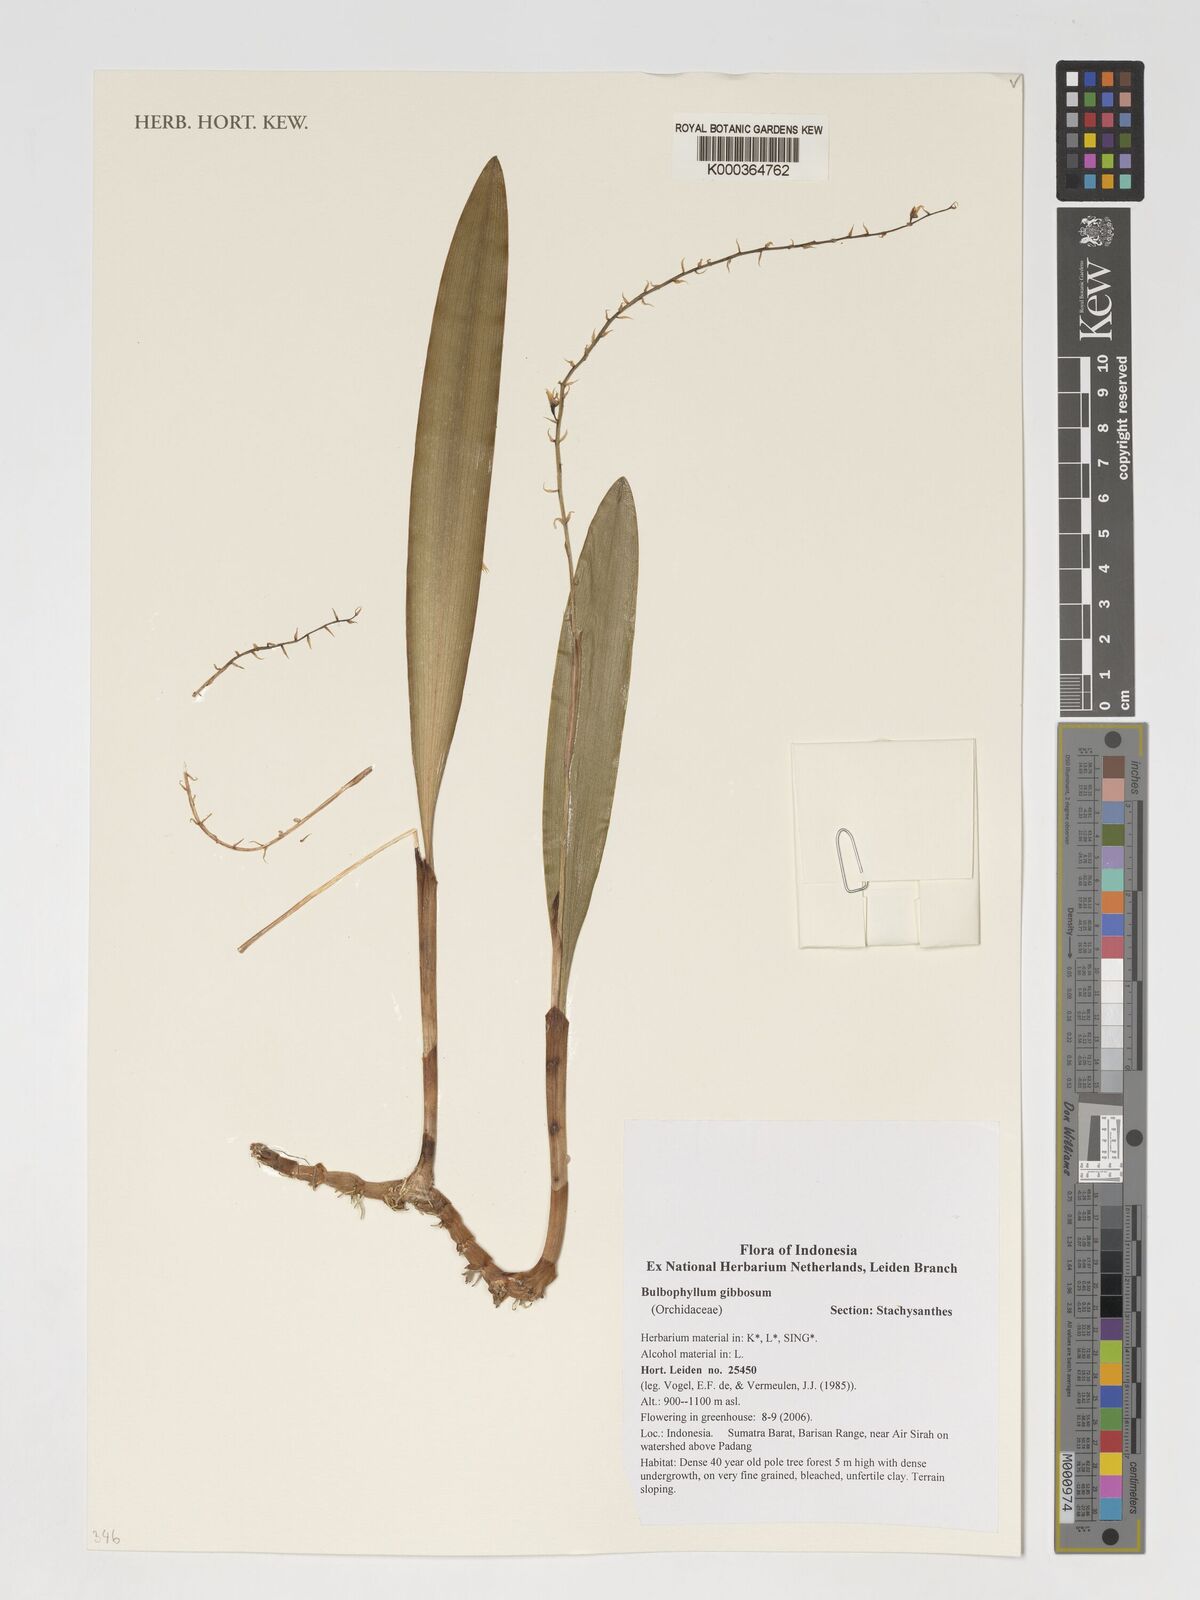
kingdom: Plantae
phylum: Tracheophyta
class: Liliopsida
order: Asparagales
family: Orchidaceae
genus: Bulbophyllum
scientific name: Bulbophyllum gibbosum
